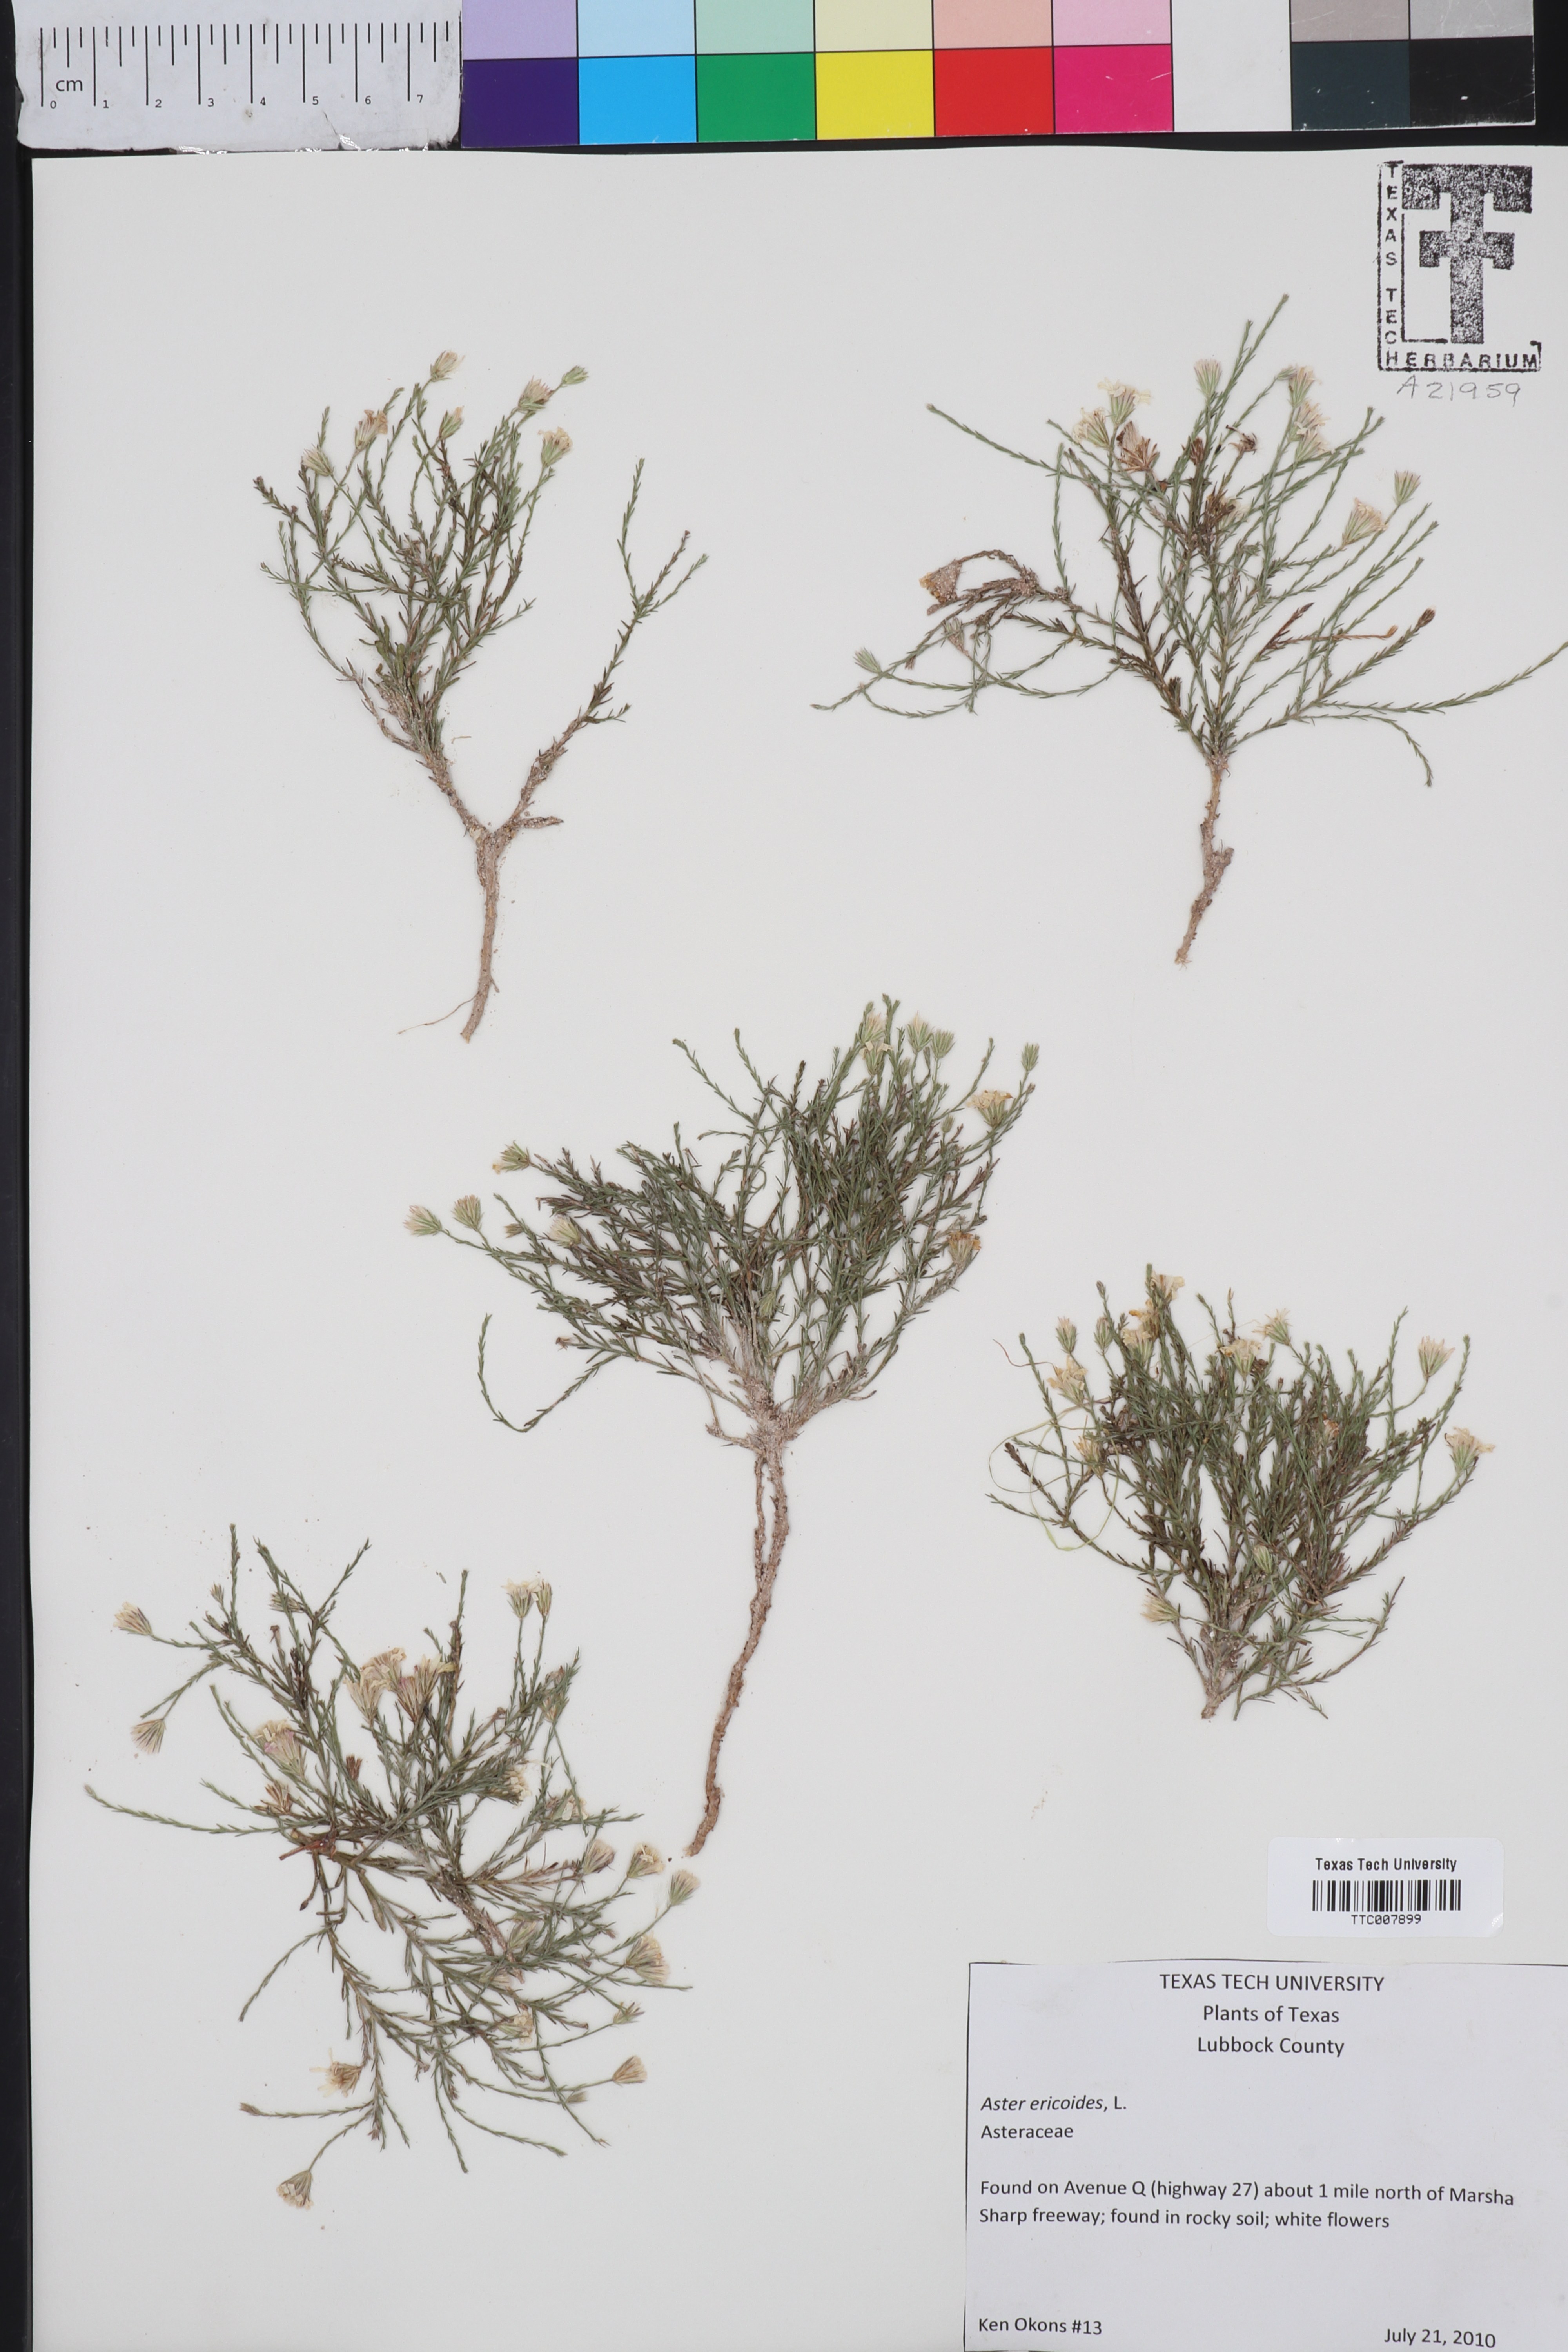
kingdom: Plantae
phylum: Tracheophyta
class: Magnoliopsida
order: Asterales
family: Asteraceae
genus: Symphyotrichum
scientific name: Symphyotrichum ericoides
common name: Heath aster
